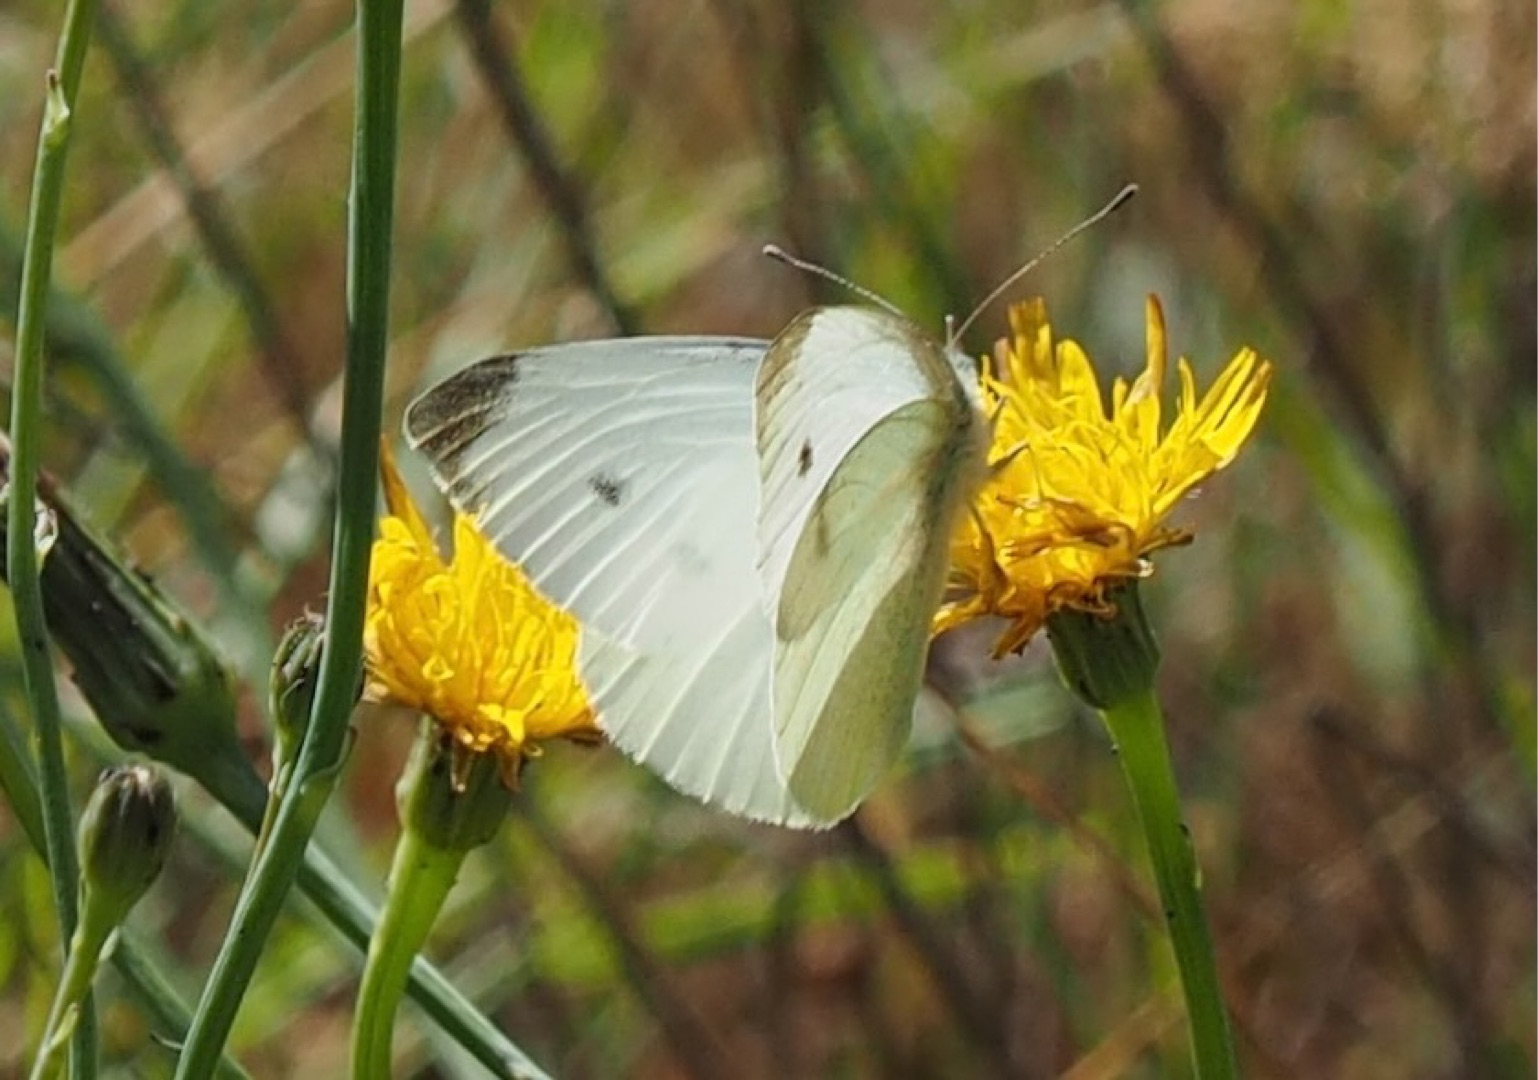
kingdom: Animalia
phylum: Arthropoda
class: Insecta
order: Lepidoptera
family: Pieridae
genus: Pieris
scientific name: Pieris rapae
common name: Lille kålsommerfugl
